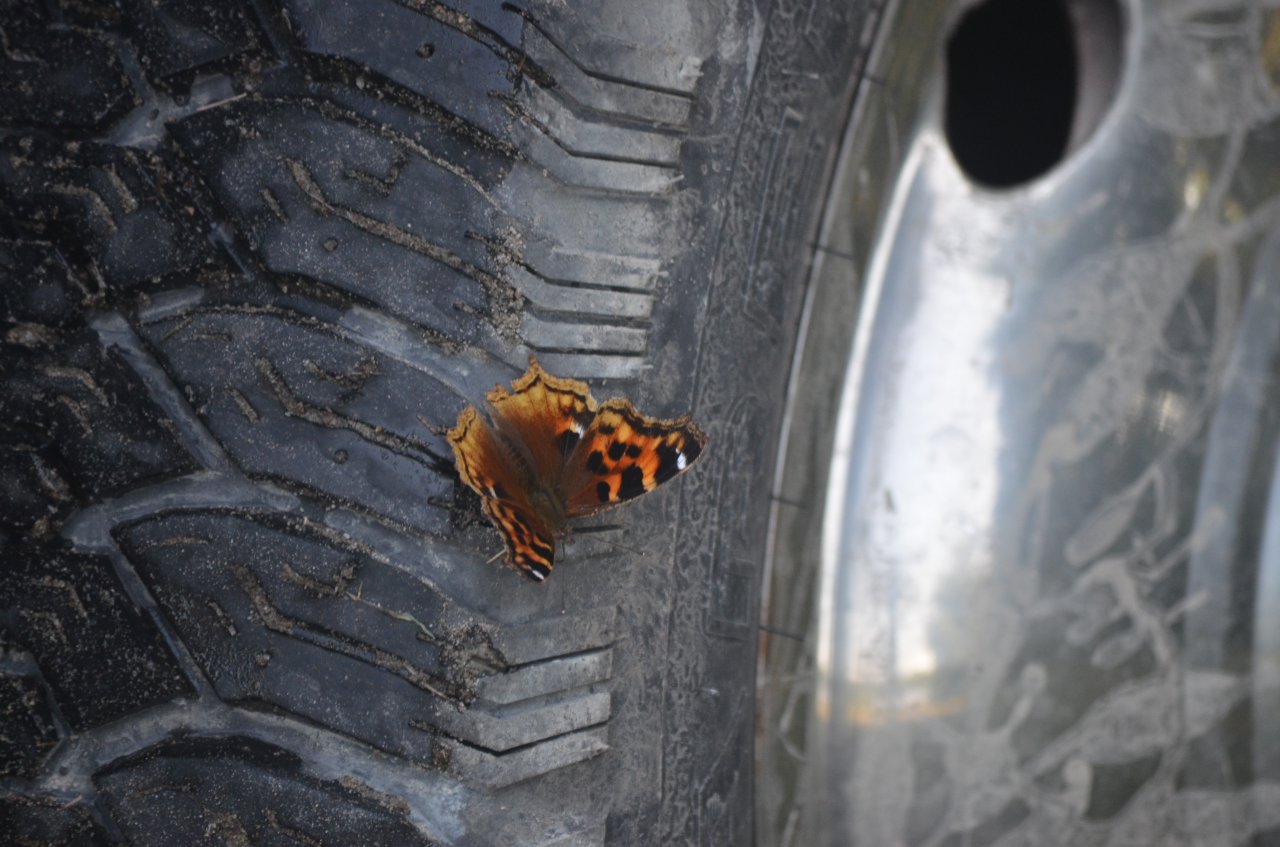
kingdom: Animalia
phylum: Arthropoda
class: Insecta
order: Lepidoptera
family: Nymphalidae
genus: Polygonia
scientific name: Polygonia vaualbum
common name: Compton Tortoiseshell
